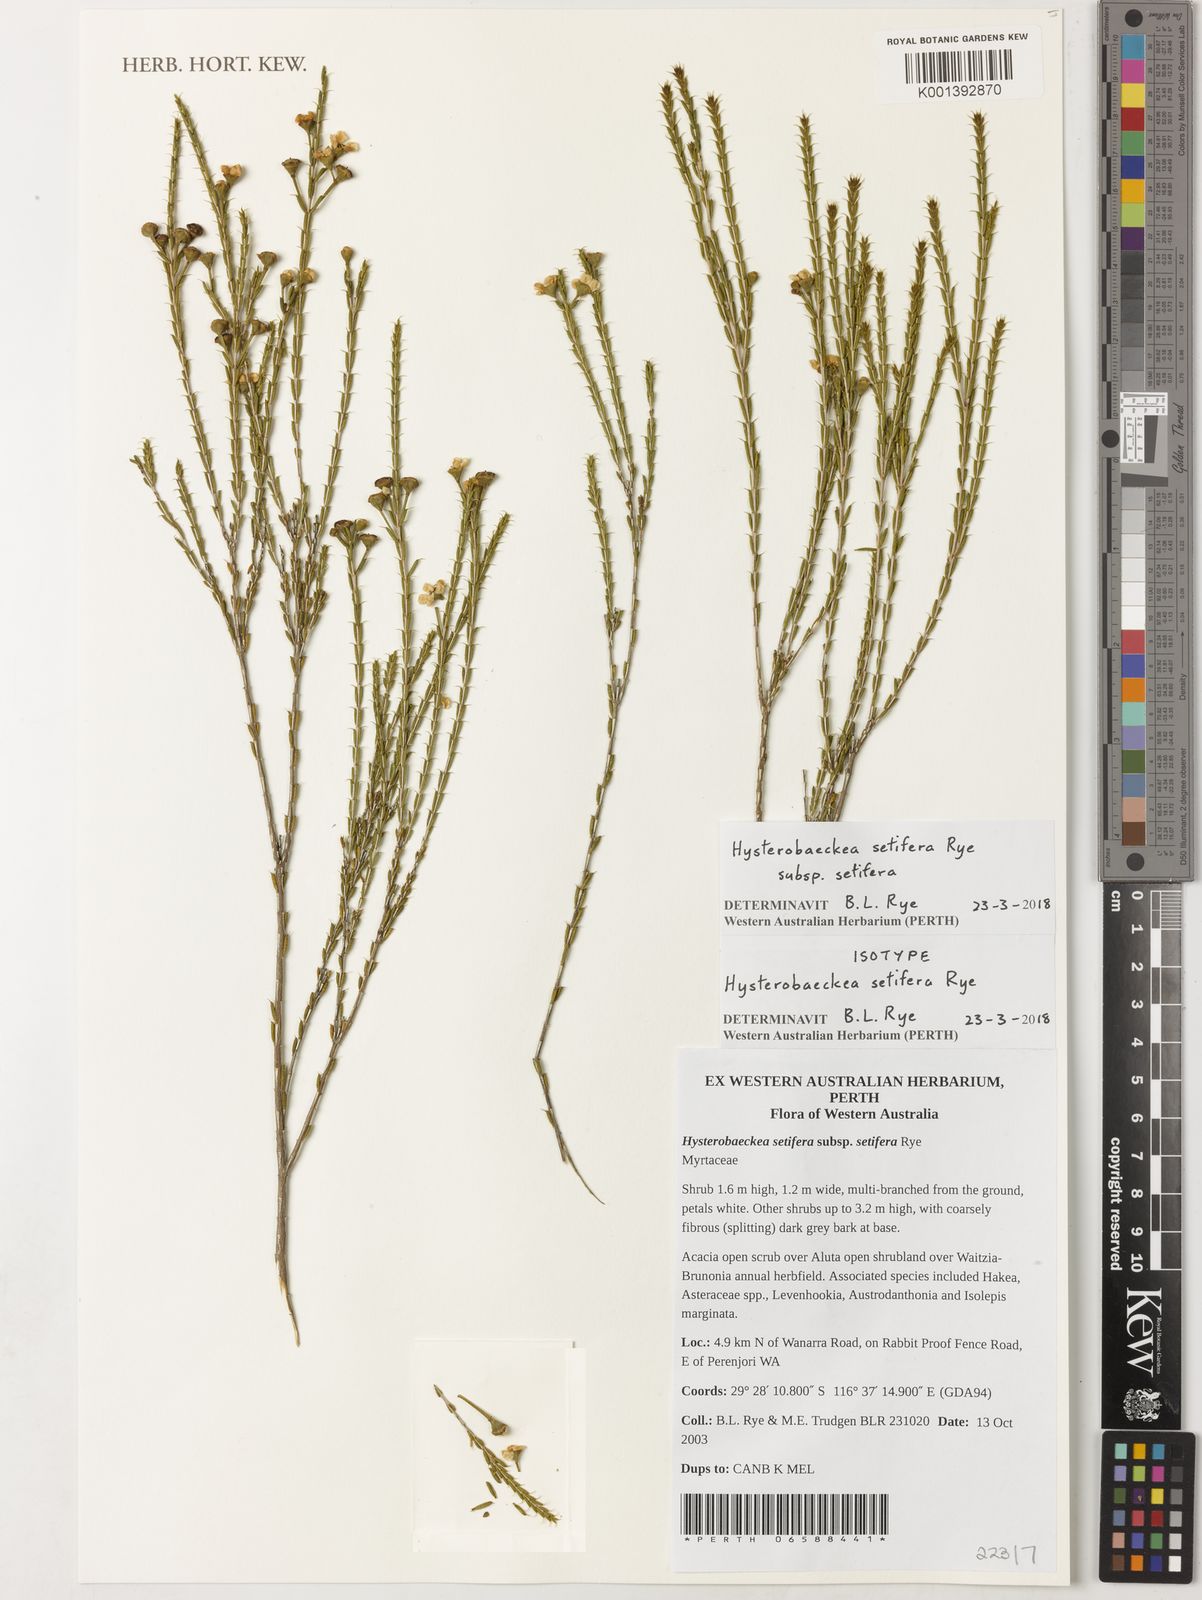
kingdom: Plantae
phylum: Tracheophyta
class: Magnoliopsida
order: Myrtales
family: Myrtaceae
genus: Hysterobaeckea
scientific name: Hysterobaeckea setifera
